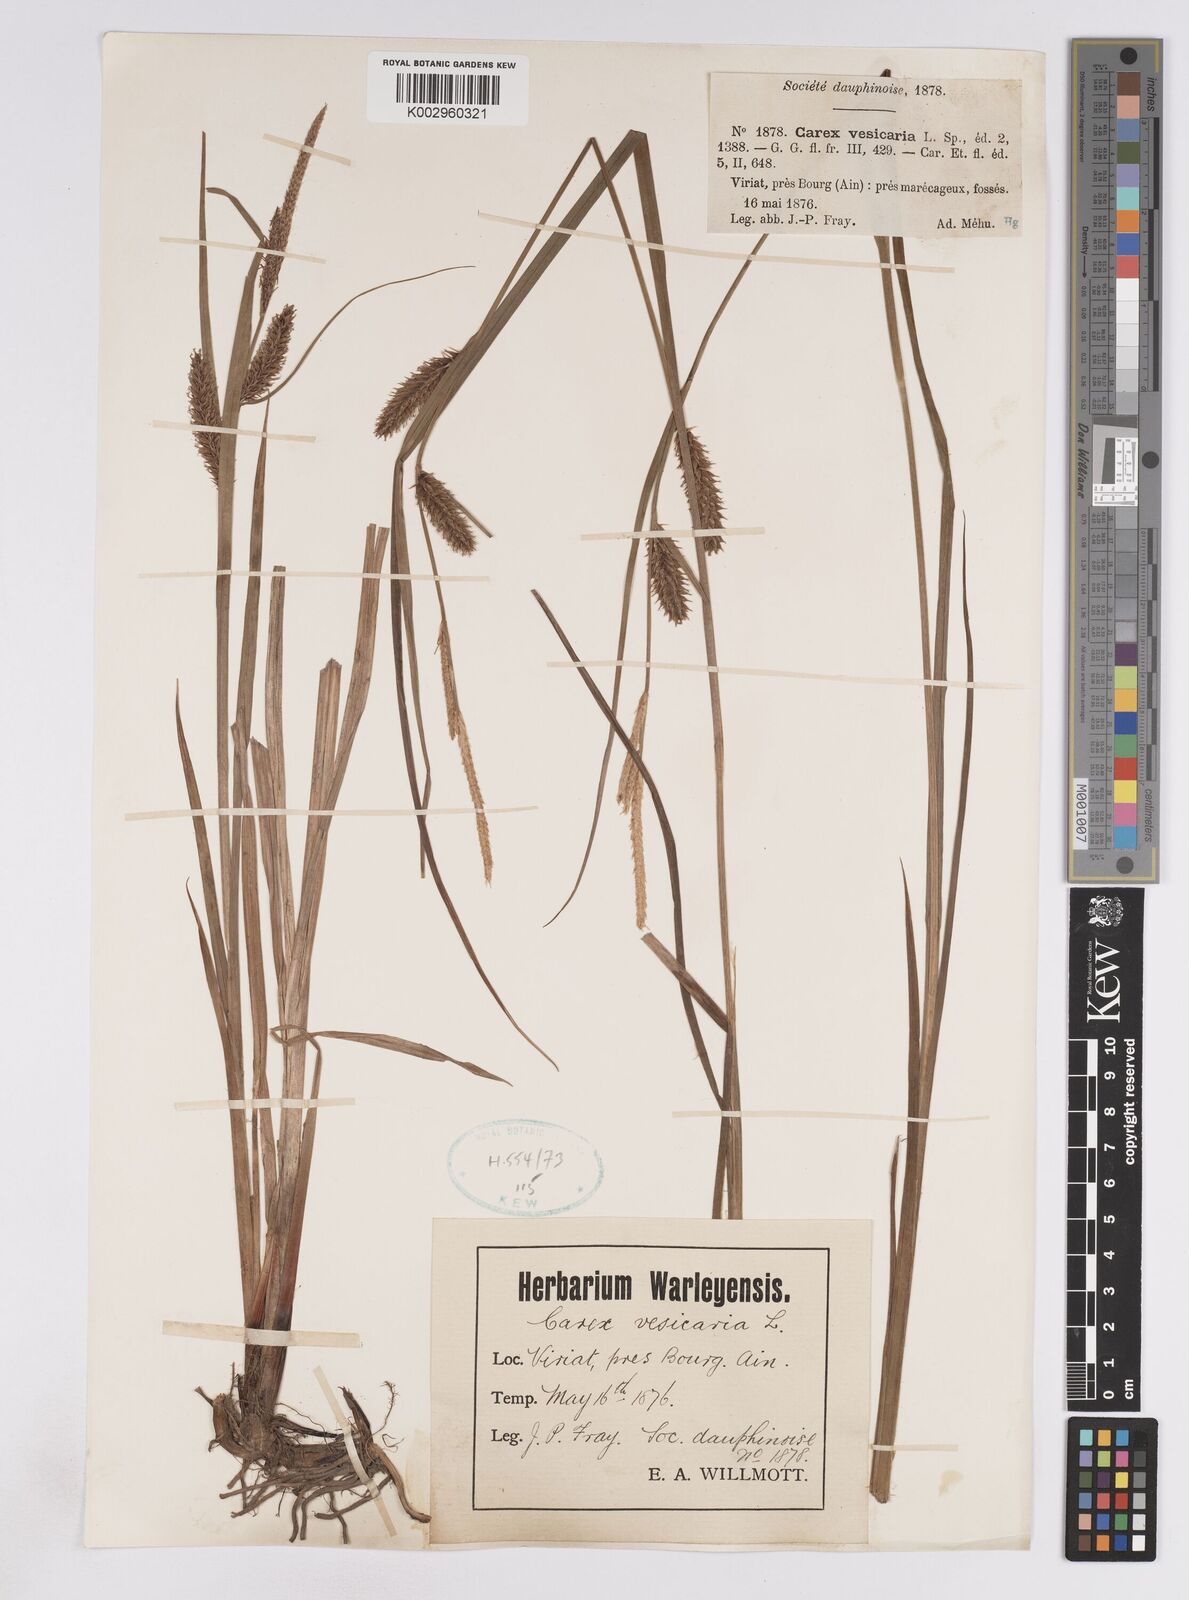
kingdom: Plantae
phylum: Tracheophyta
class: Liliopsida
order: Poales
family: Cyperaceae
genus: Carex
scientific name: Carex vesicaria
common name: Bladder-sedge
